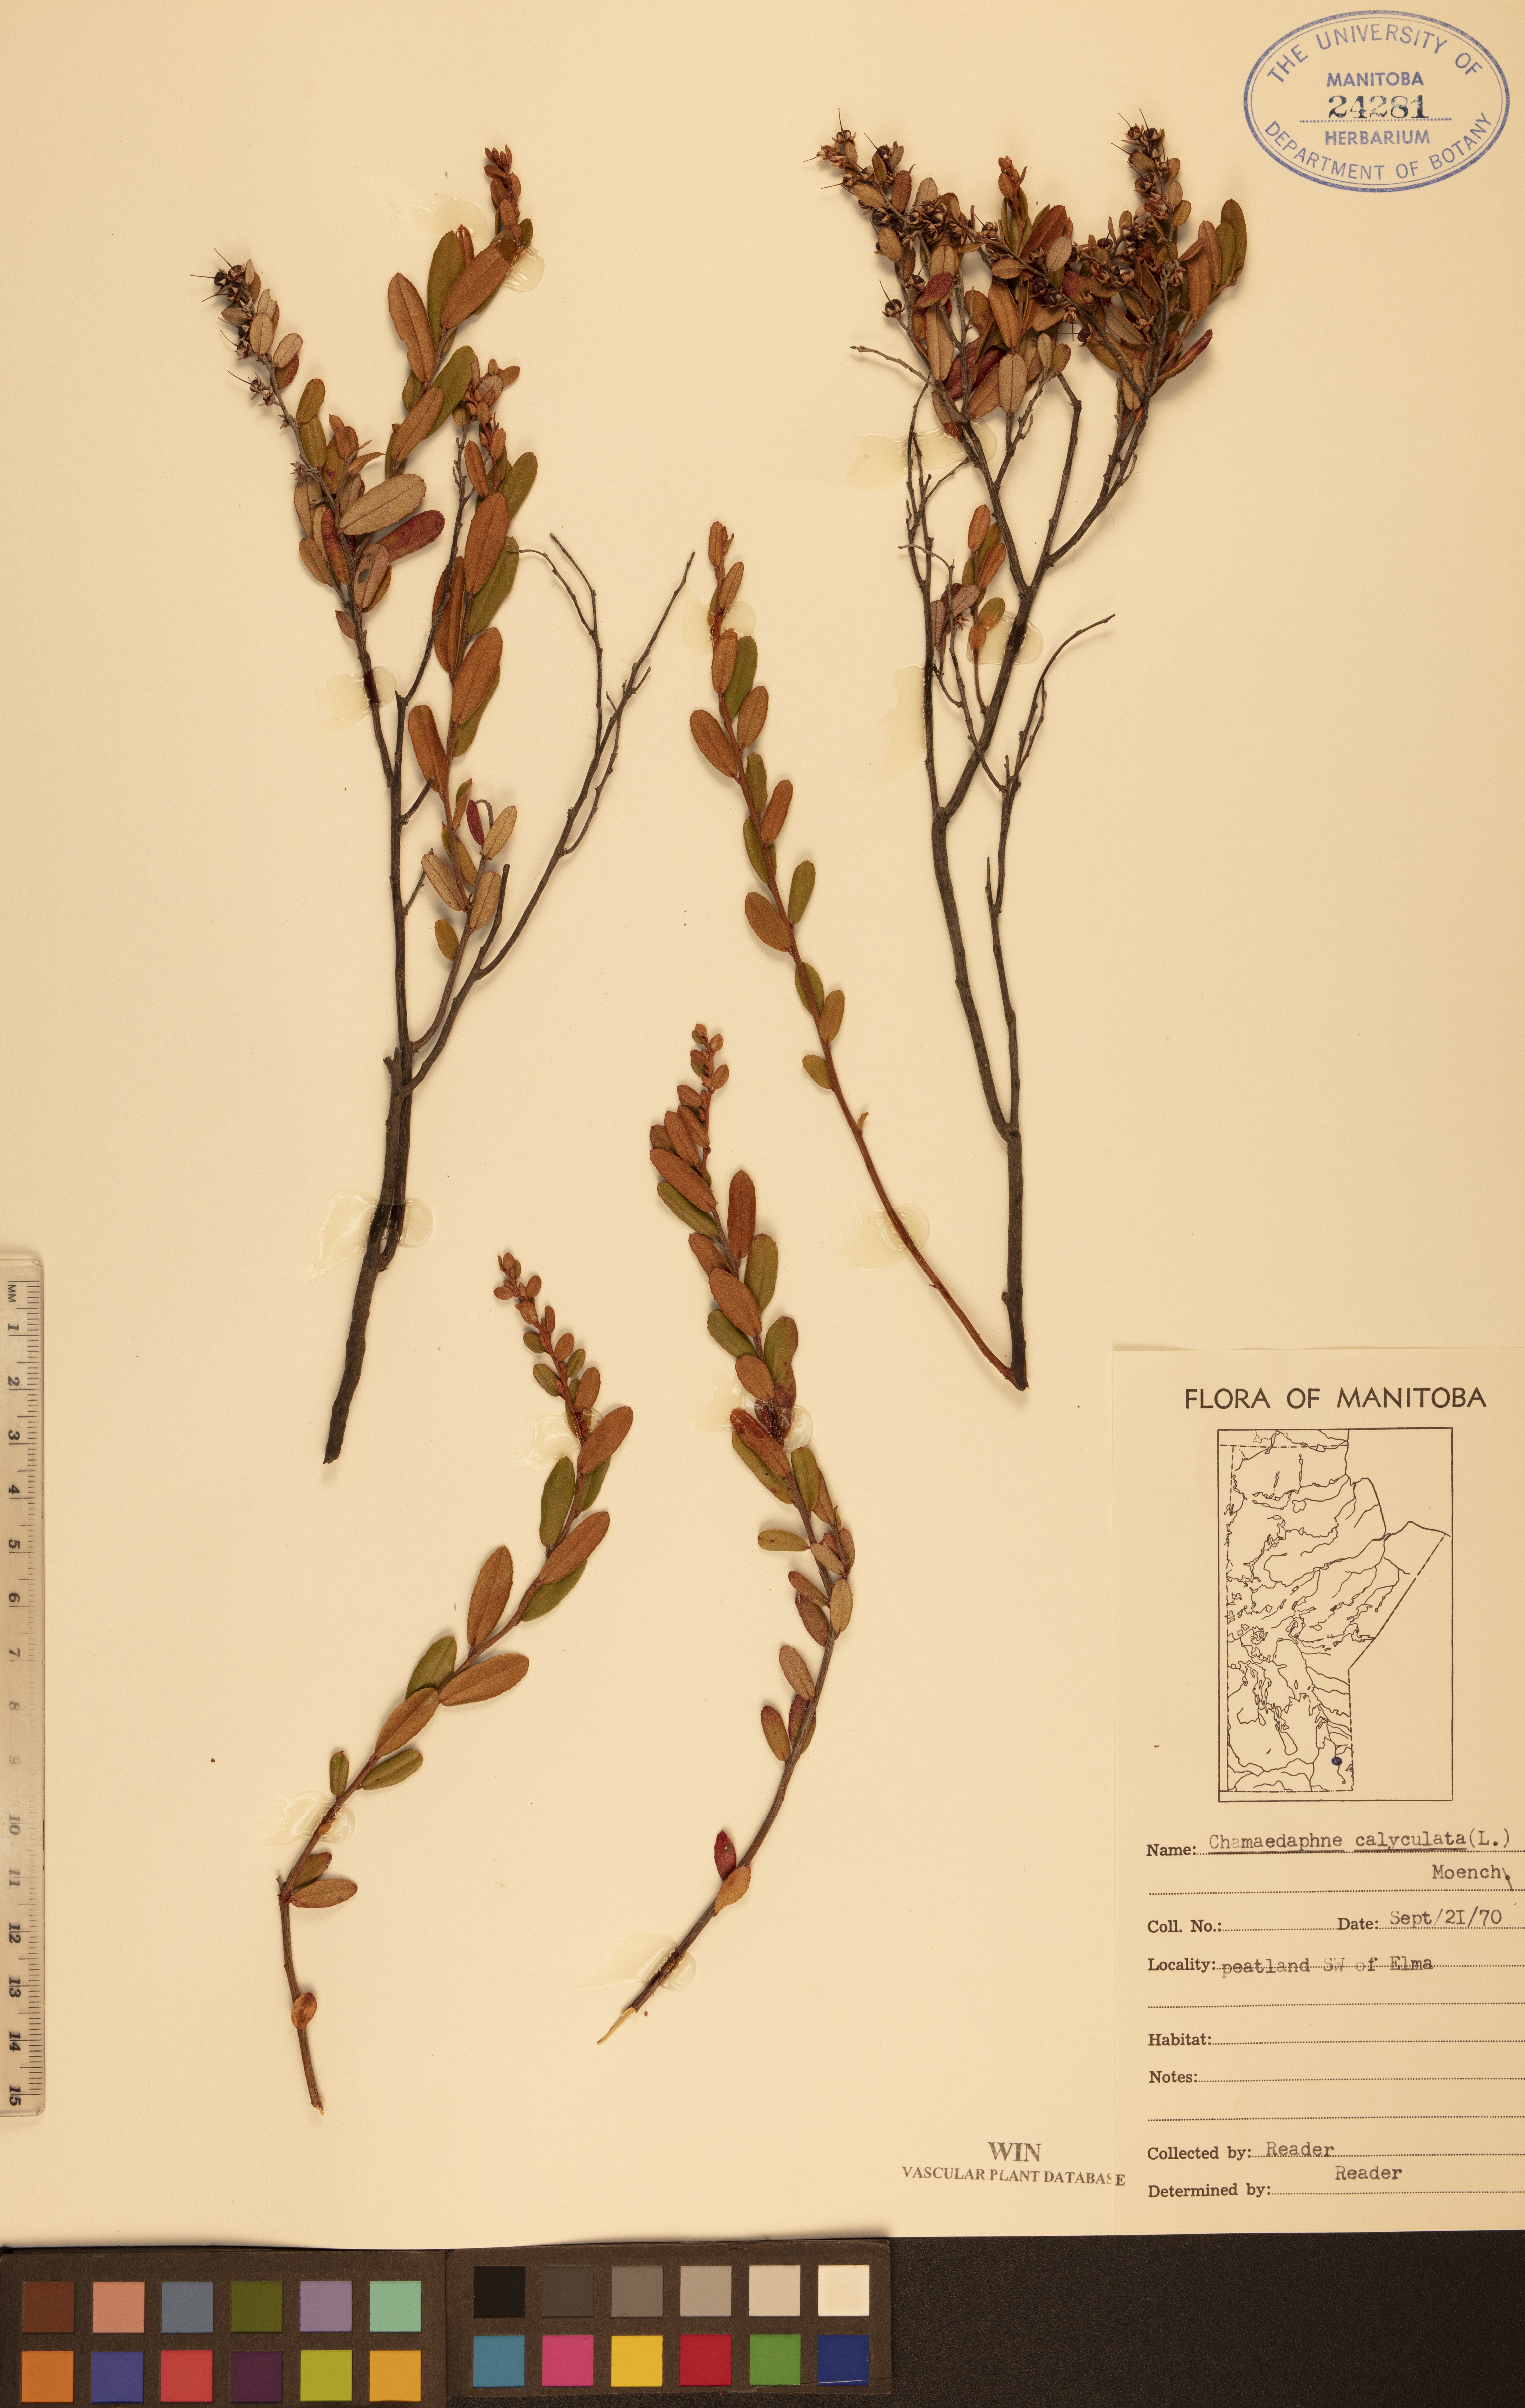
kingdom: Plantae
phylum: Tracheophyta
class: Magnoliopsida
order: Ericales
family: Ericaceae
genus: Chamaedaphne
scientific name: Chamaedaphne calyculata
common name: Leatherleaf
